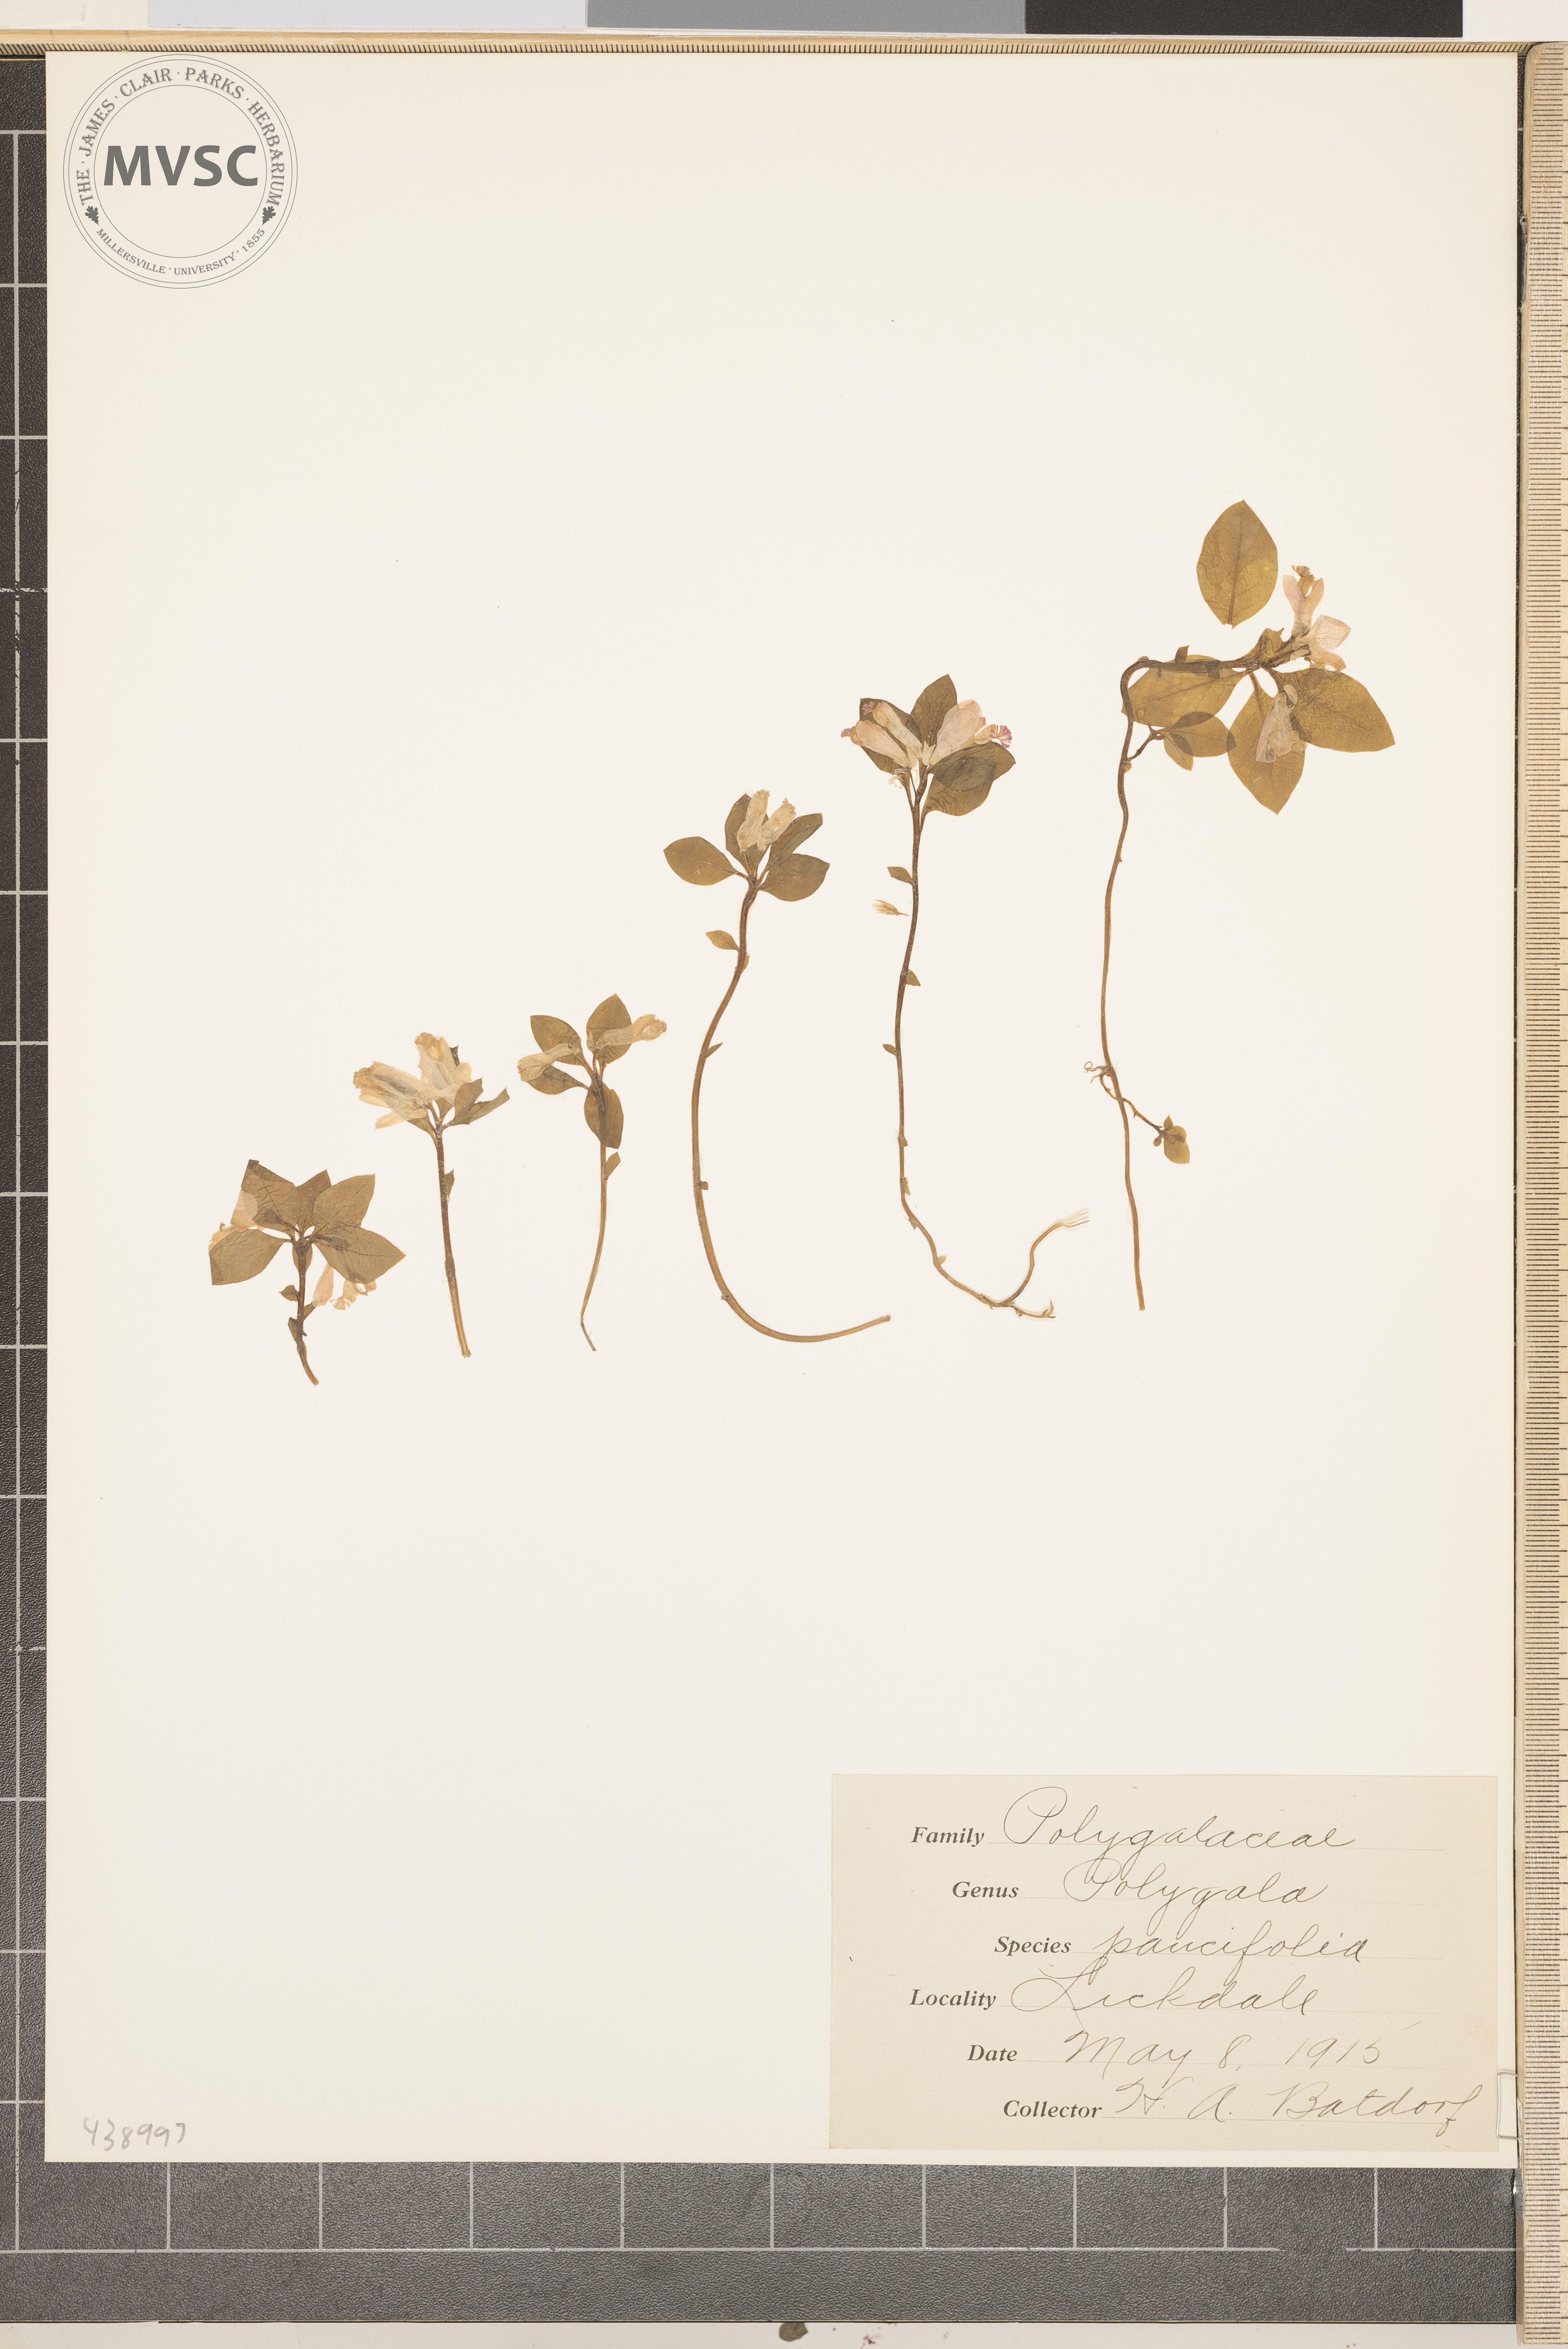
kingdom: Plantae
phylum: Tracheophyta
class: Magnoliopsida
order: Fabales
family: Polygalaceae
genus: Polygaloides
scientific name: Polygaloides paucifolia
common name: Bird-on-the-wing
